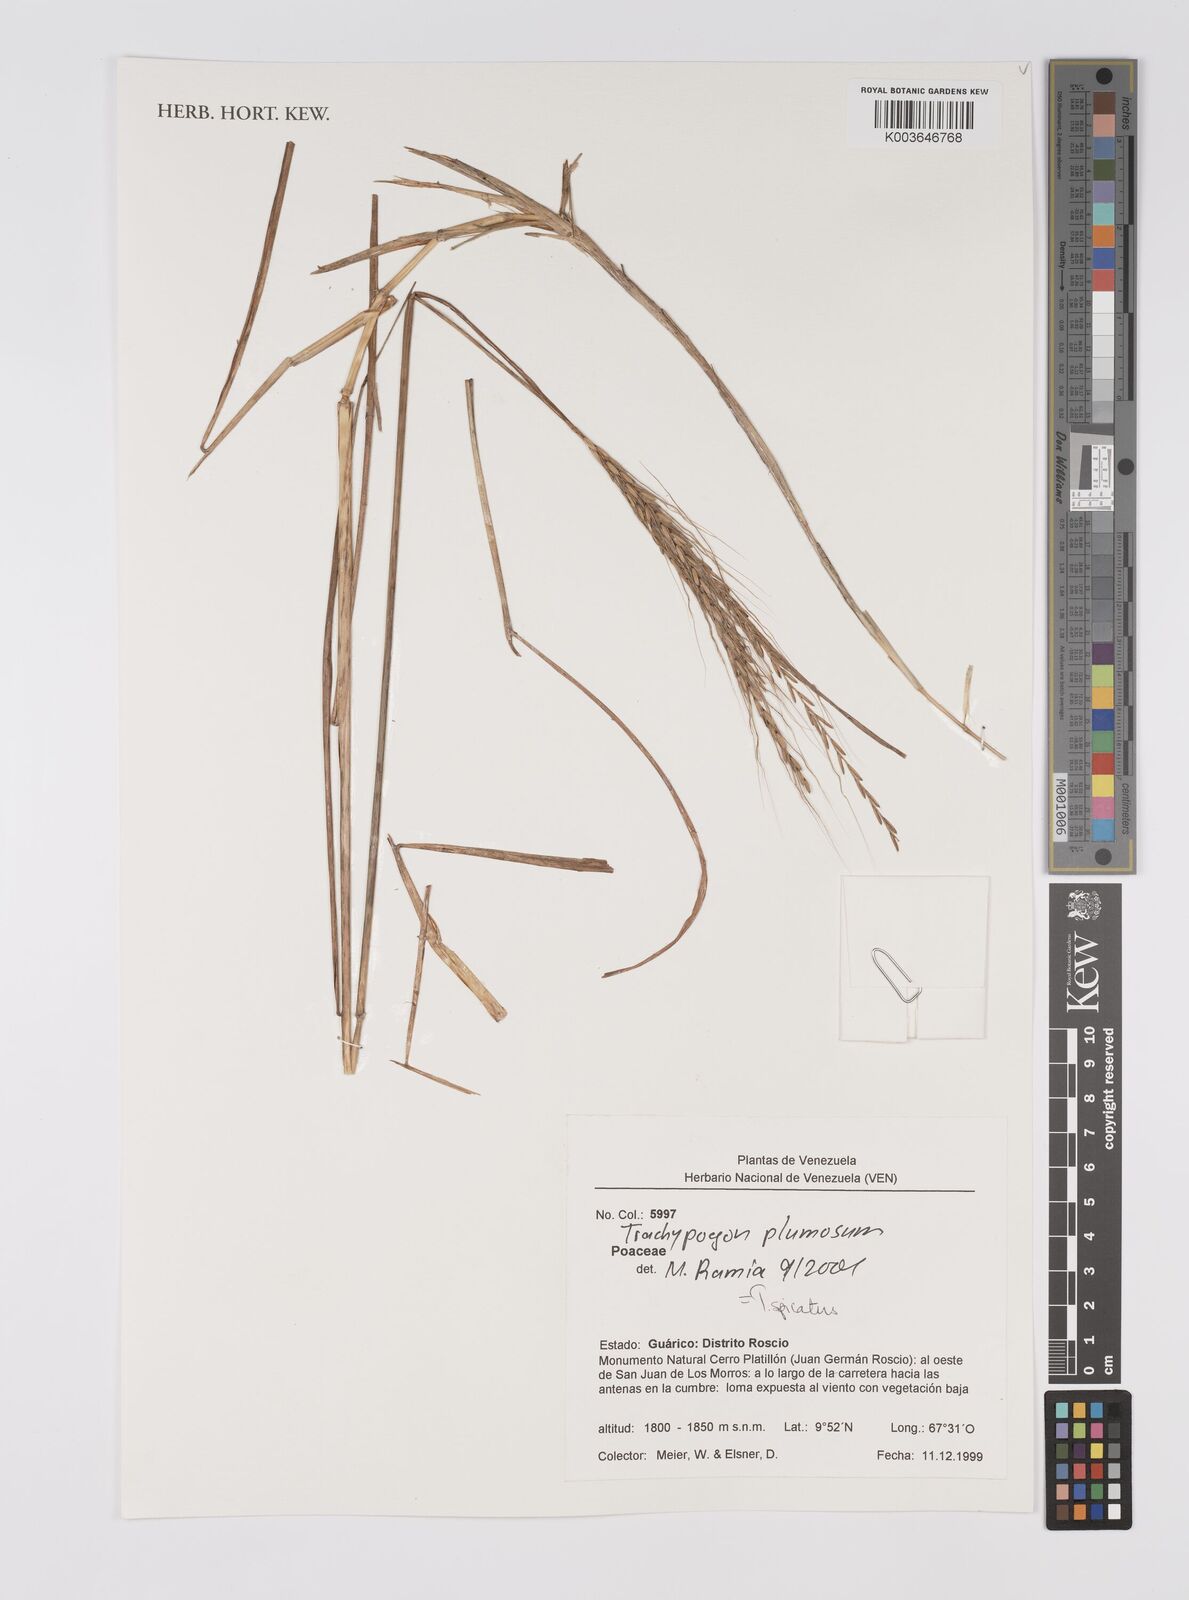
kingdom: Plantae
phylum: Tracheophyta
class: Liliopsida
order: Poales
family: Poaceae
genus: Trachypogon
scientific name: Trachypogon spicatus
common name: Crinkle-awn
